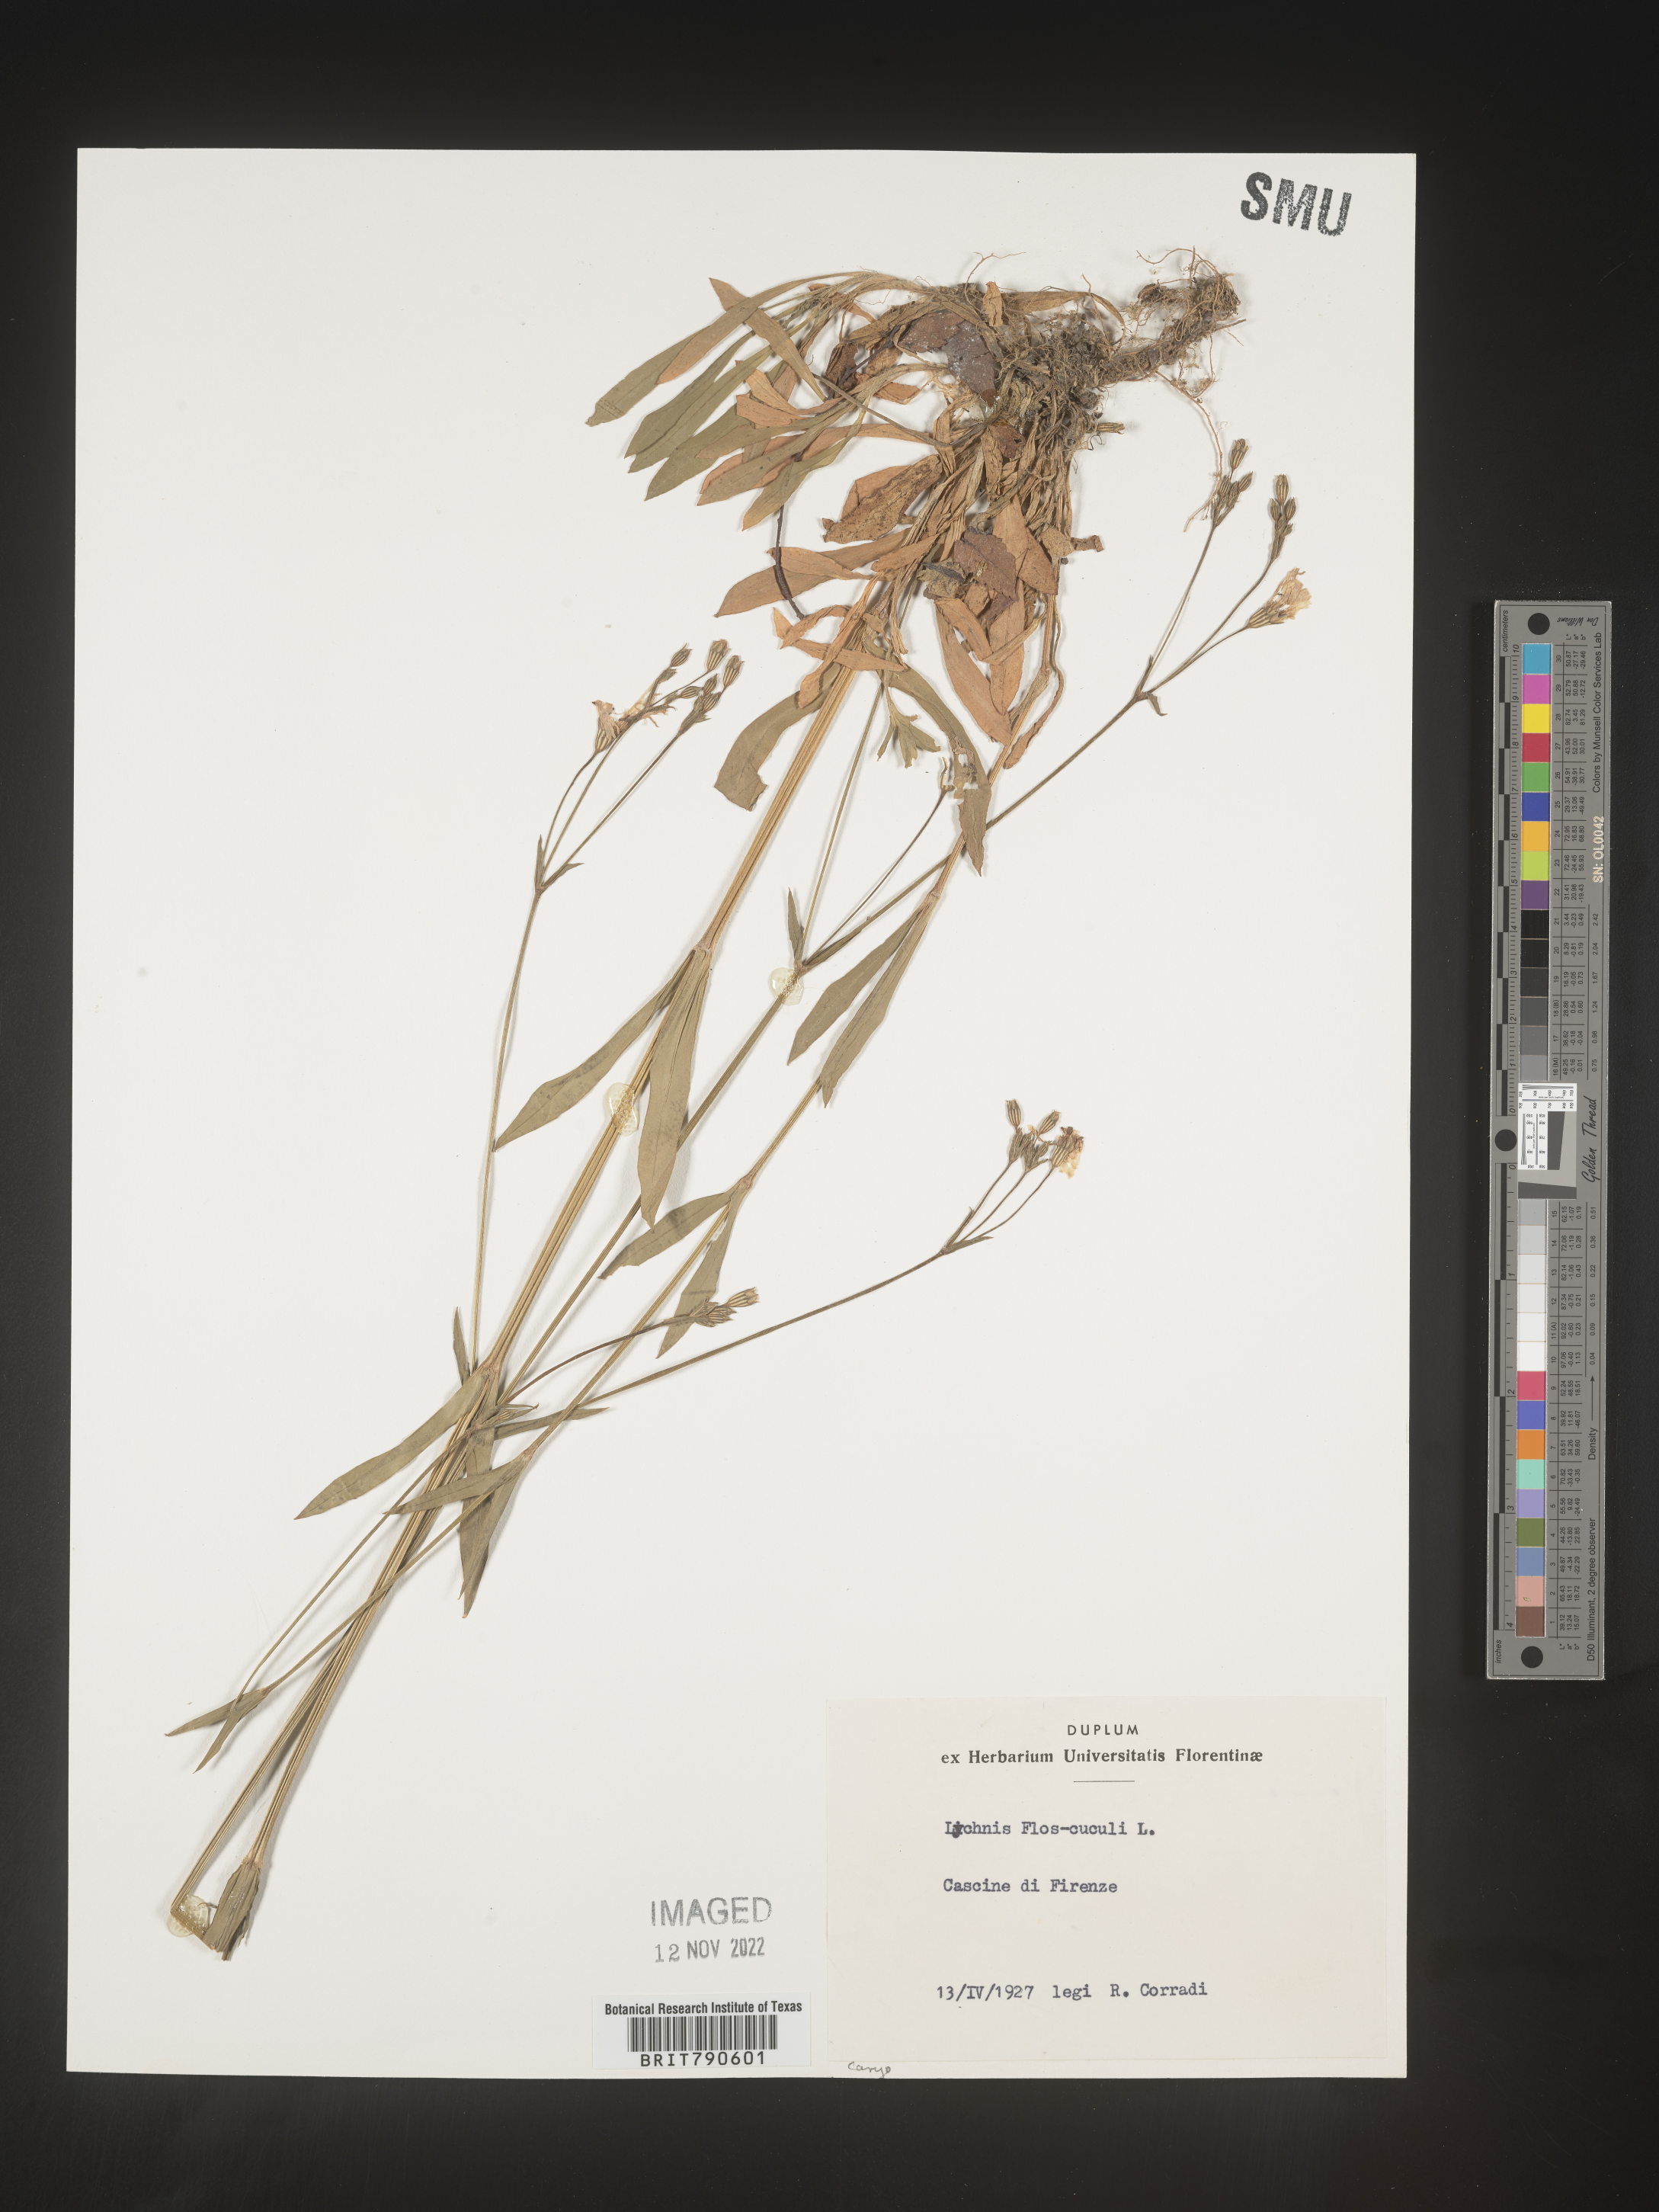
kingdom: Plantae
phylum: Tracheophyta
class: Magnoliopsida
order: Caryophyllales
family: Caryophyllaceae
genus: Silene
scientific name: Silene
